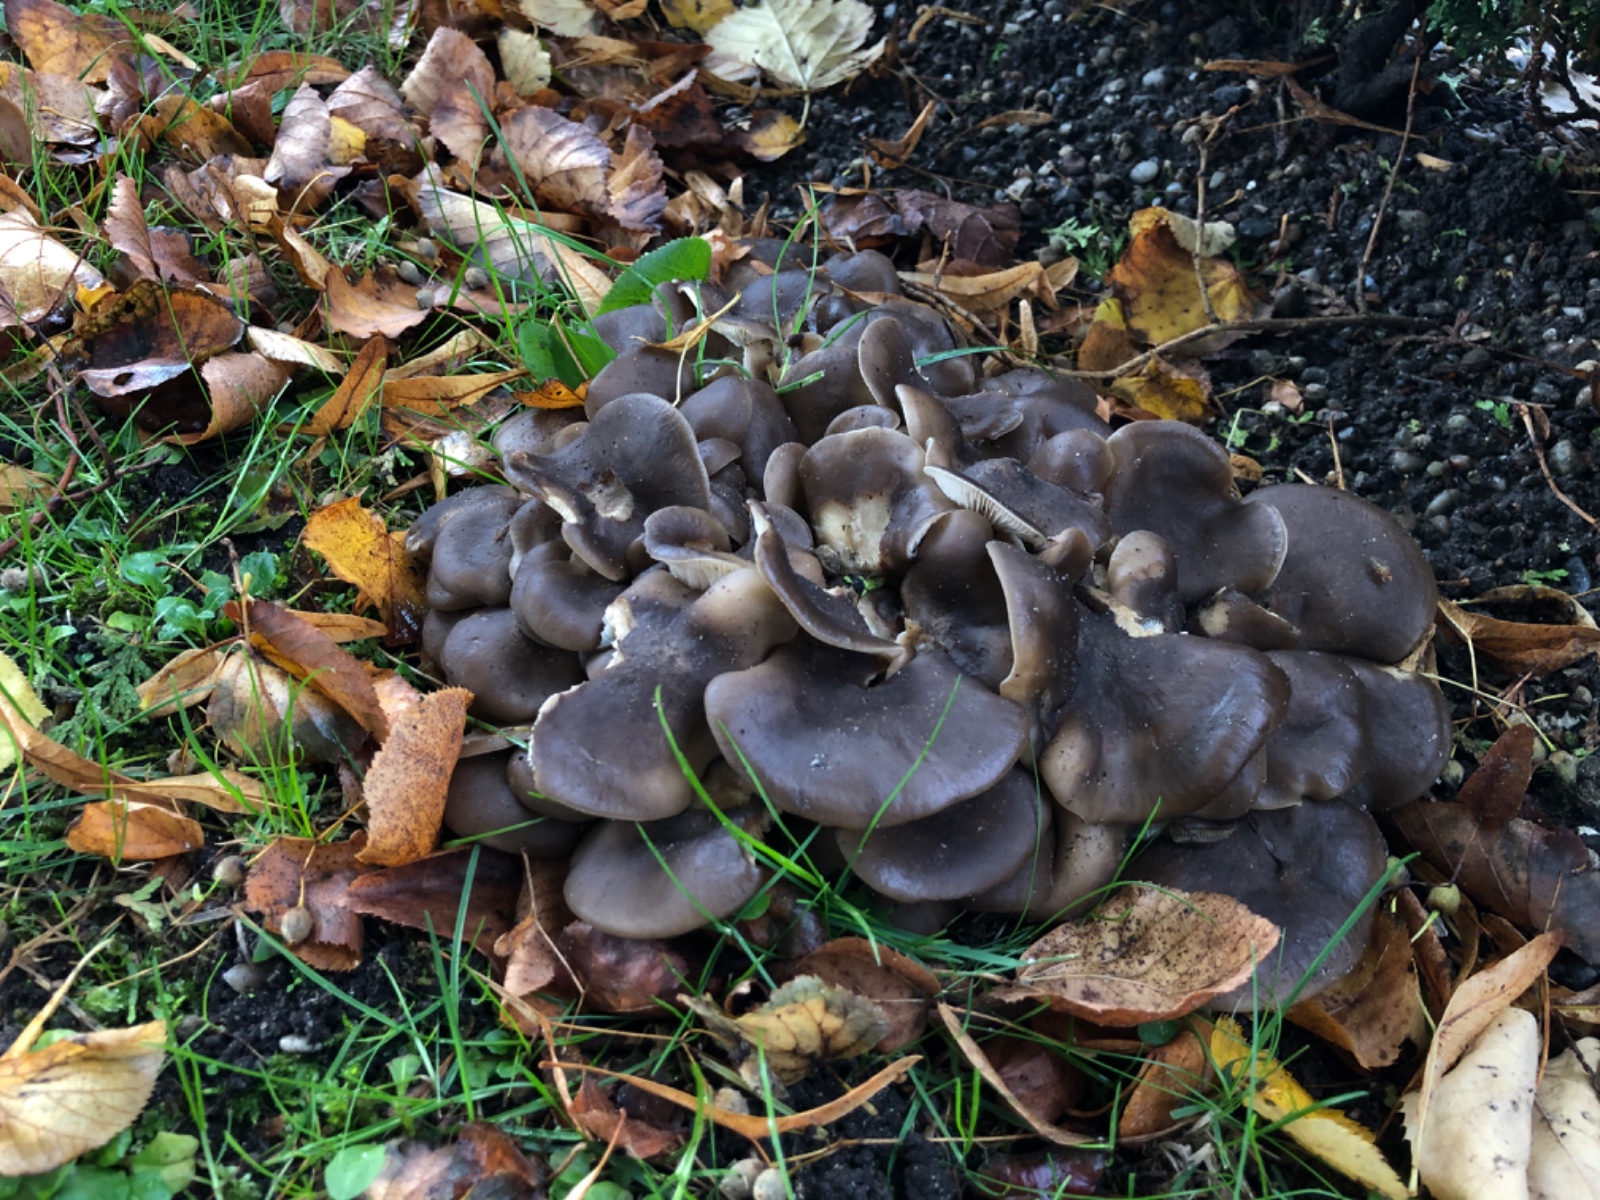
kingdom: Fungi
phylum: Basidiomycota
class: Agaricomycetes
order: Agaricales
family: Lyophyllaceae
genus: Lyophyllum
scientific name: Lyophyllum
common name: gråblad
